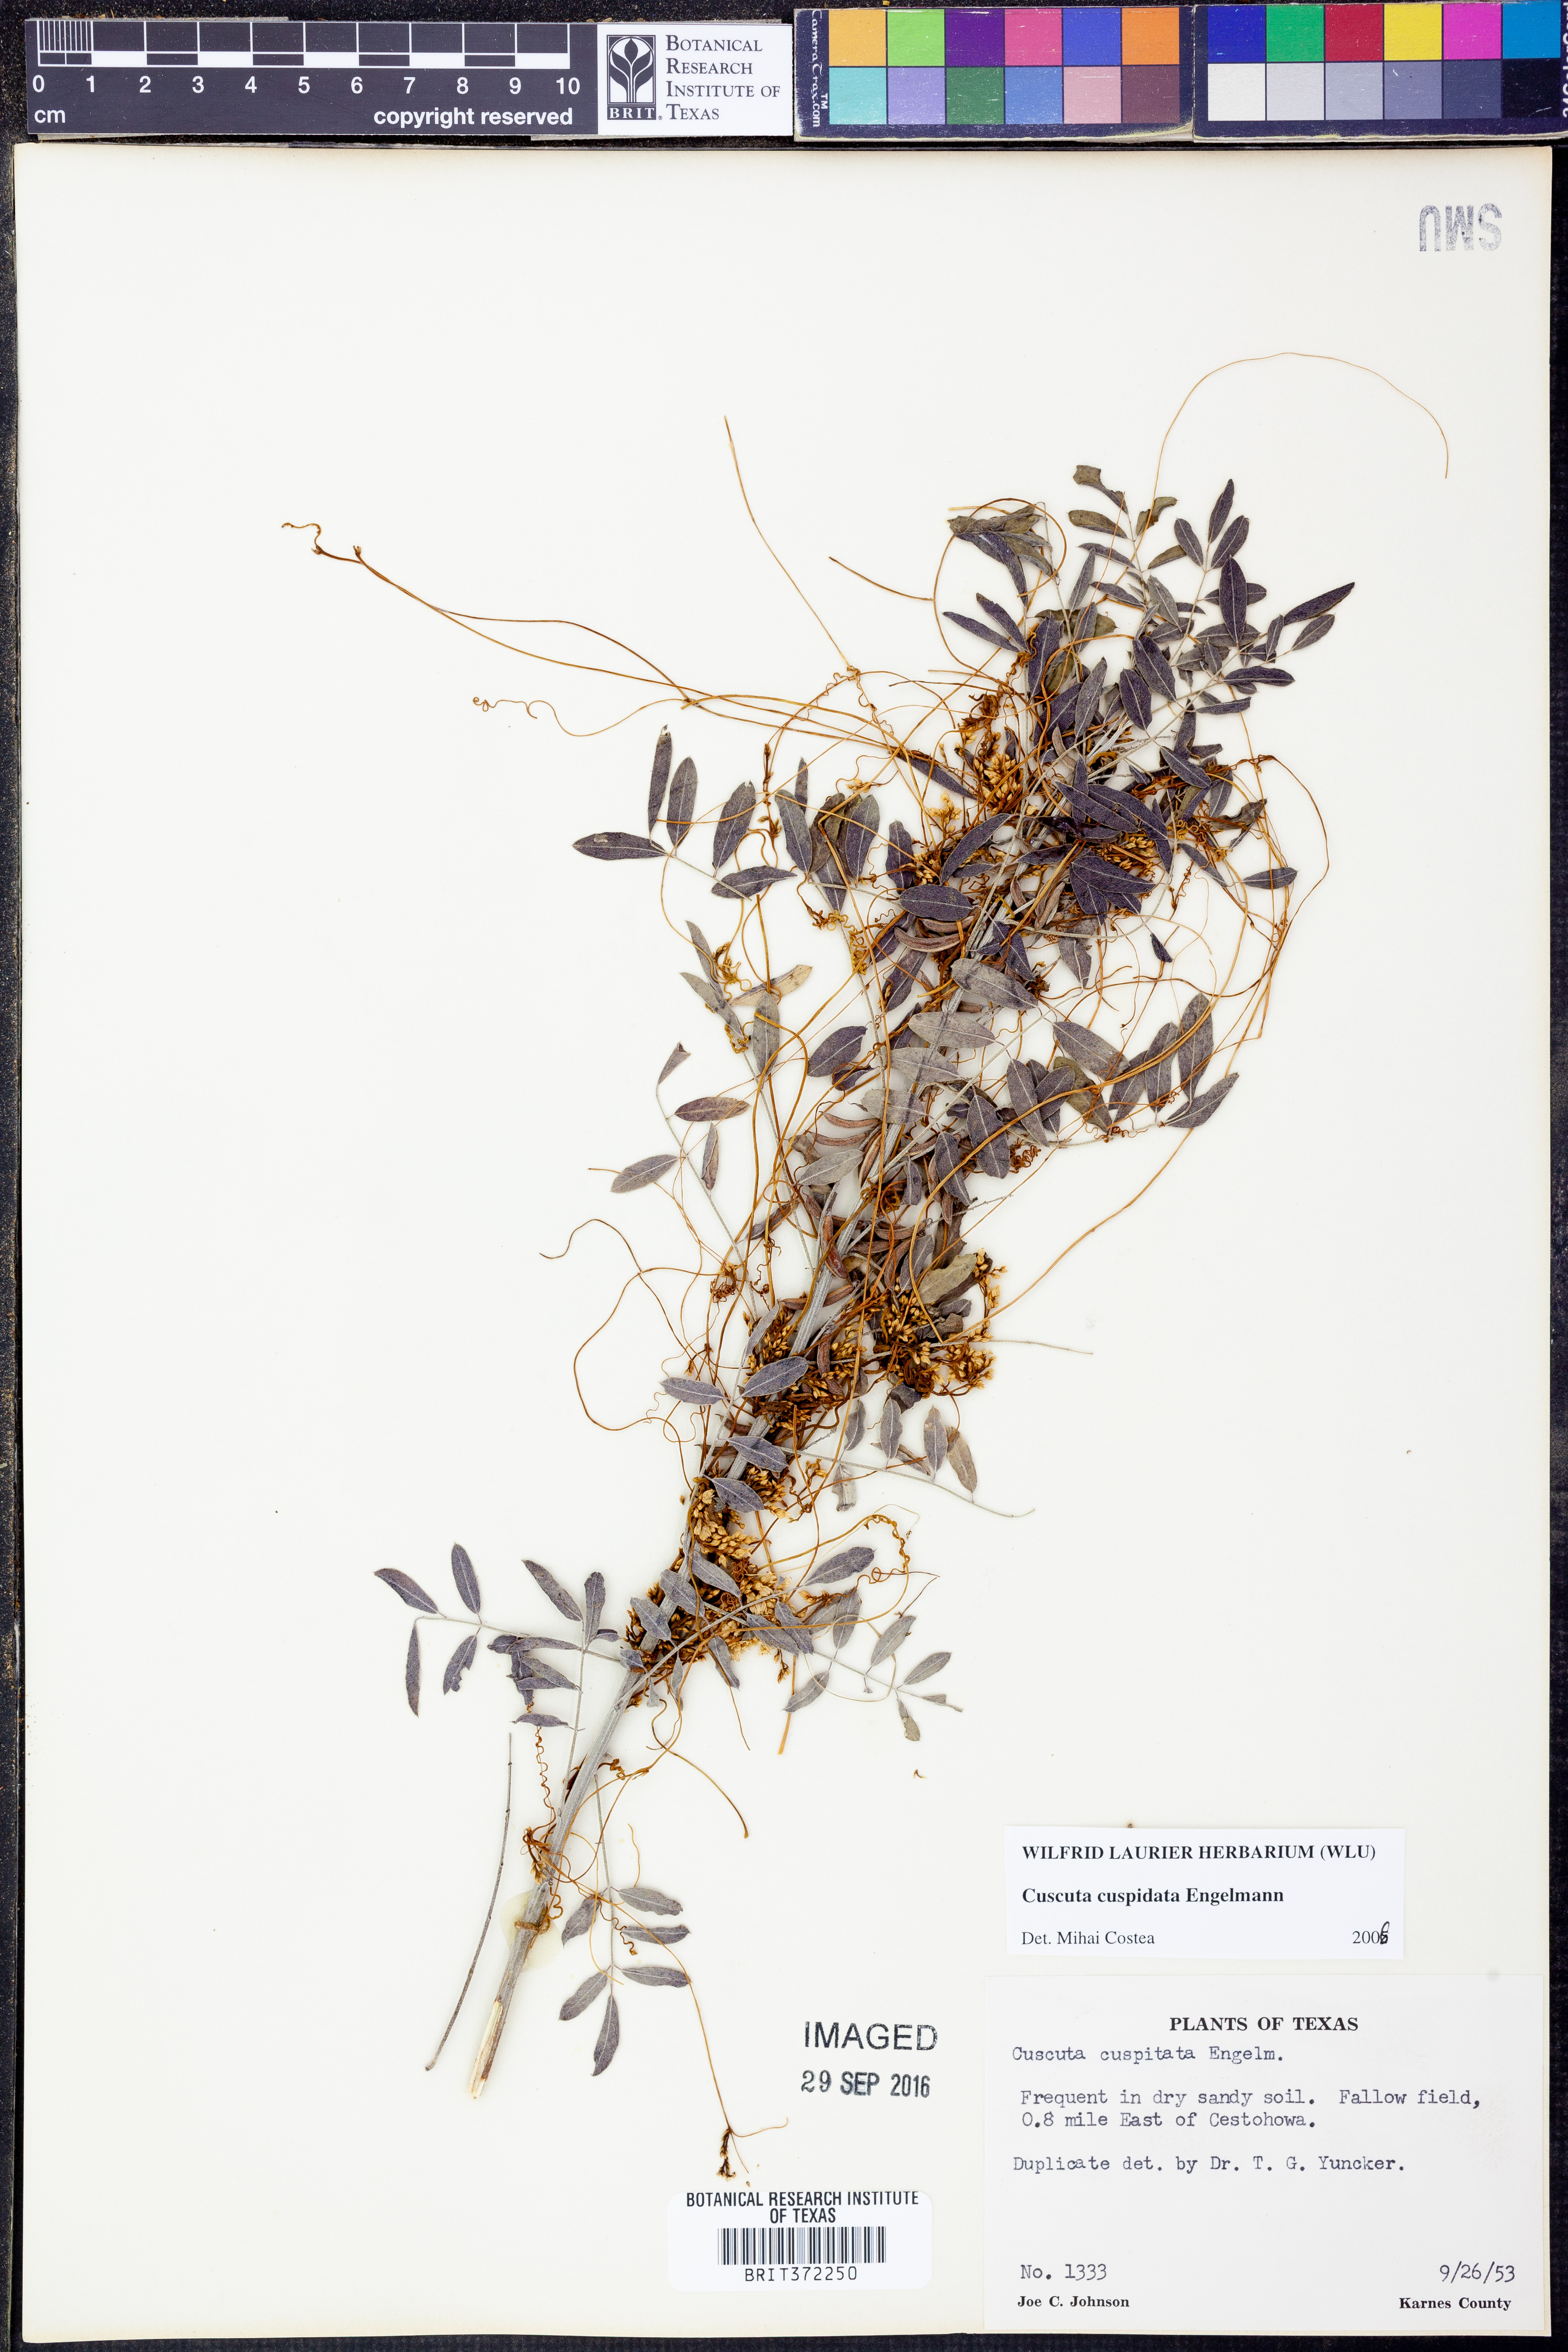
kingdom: Plantae
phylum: Tracheophyta
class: Magnoliopsida
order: Solanales
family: Convolvulaceae
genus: Cuscuta
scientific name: Cuscuta cuspidata
